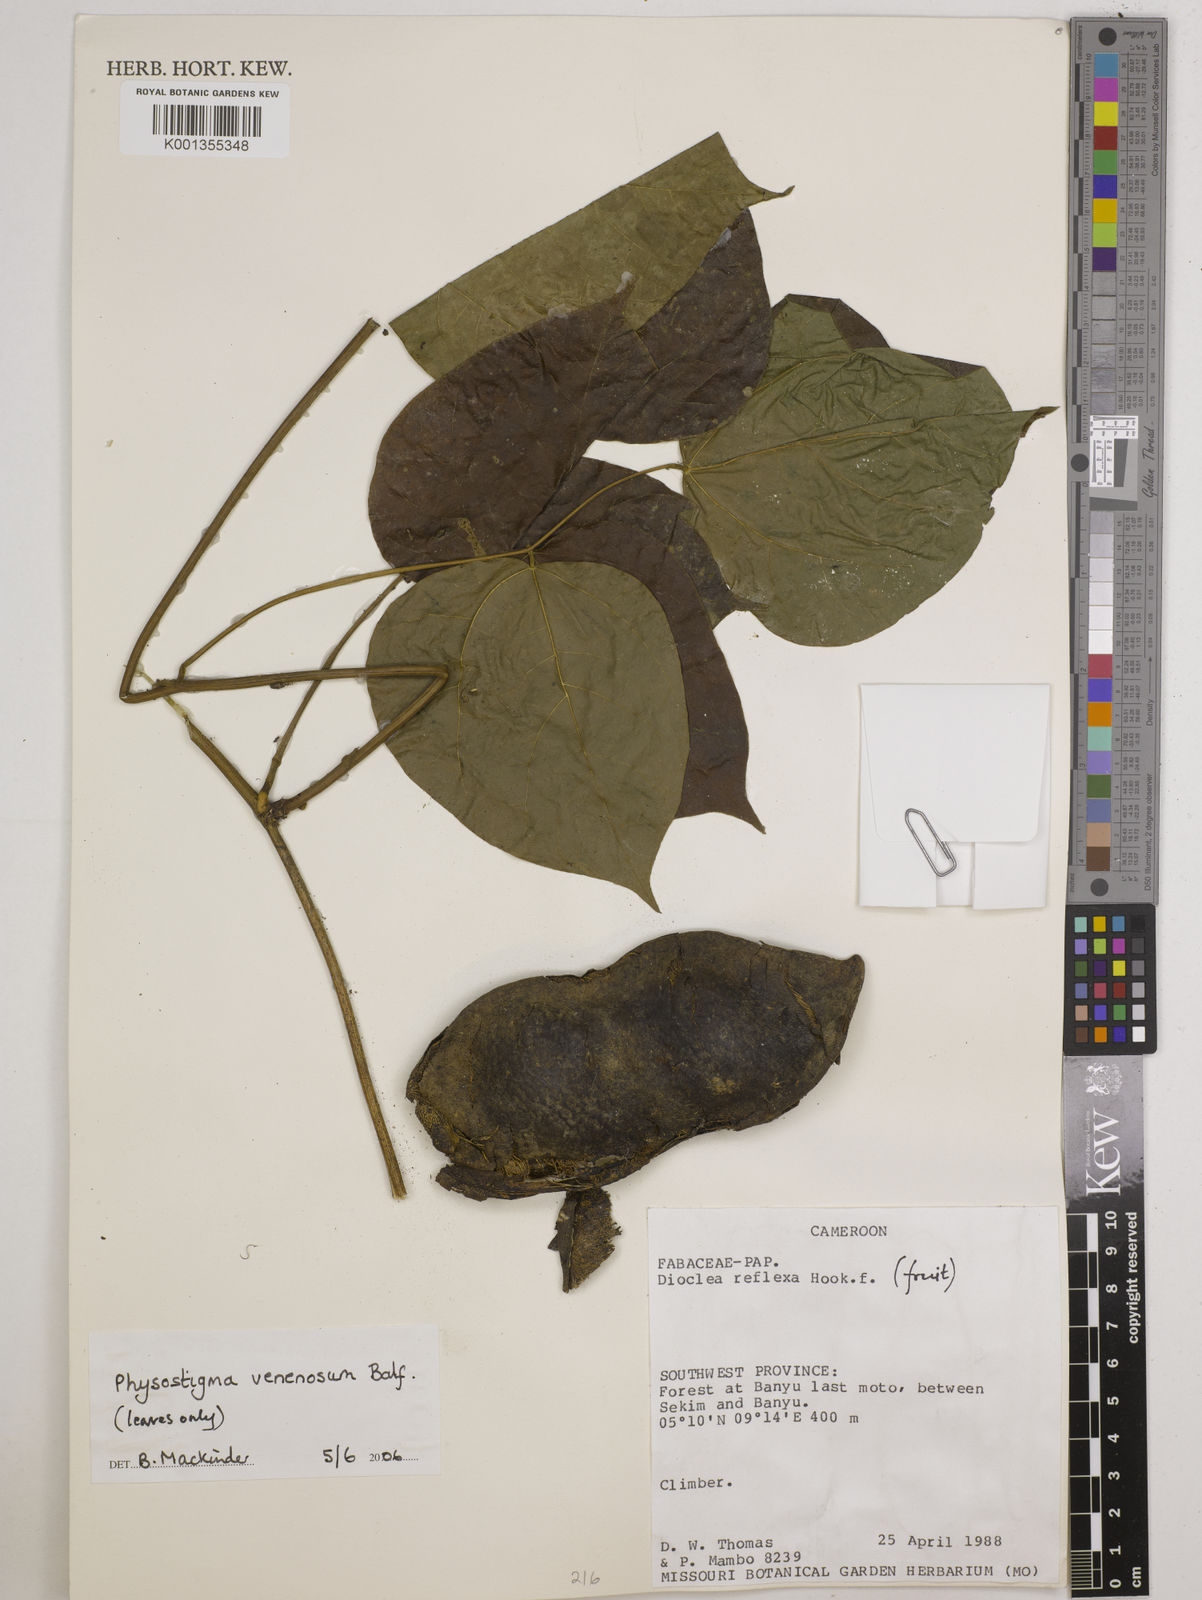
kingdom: Plantae
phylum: Tracheophyta
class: Magnoliopsida
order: Fabales
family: Fabaceae
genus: Physostigma
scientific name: Physostigma venenosum
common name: Calabar-bean
